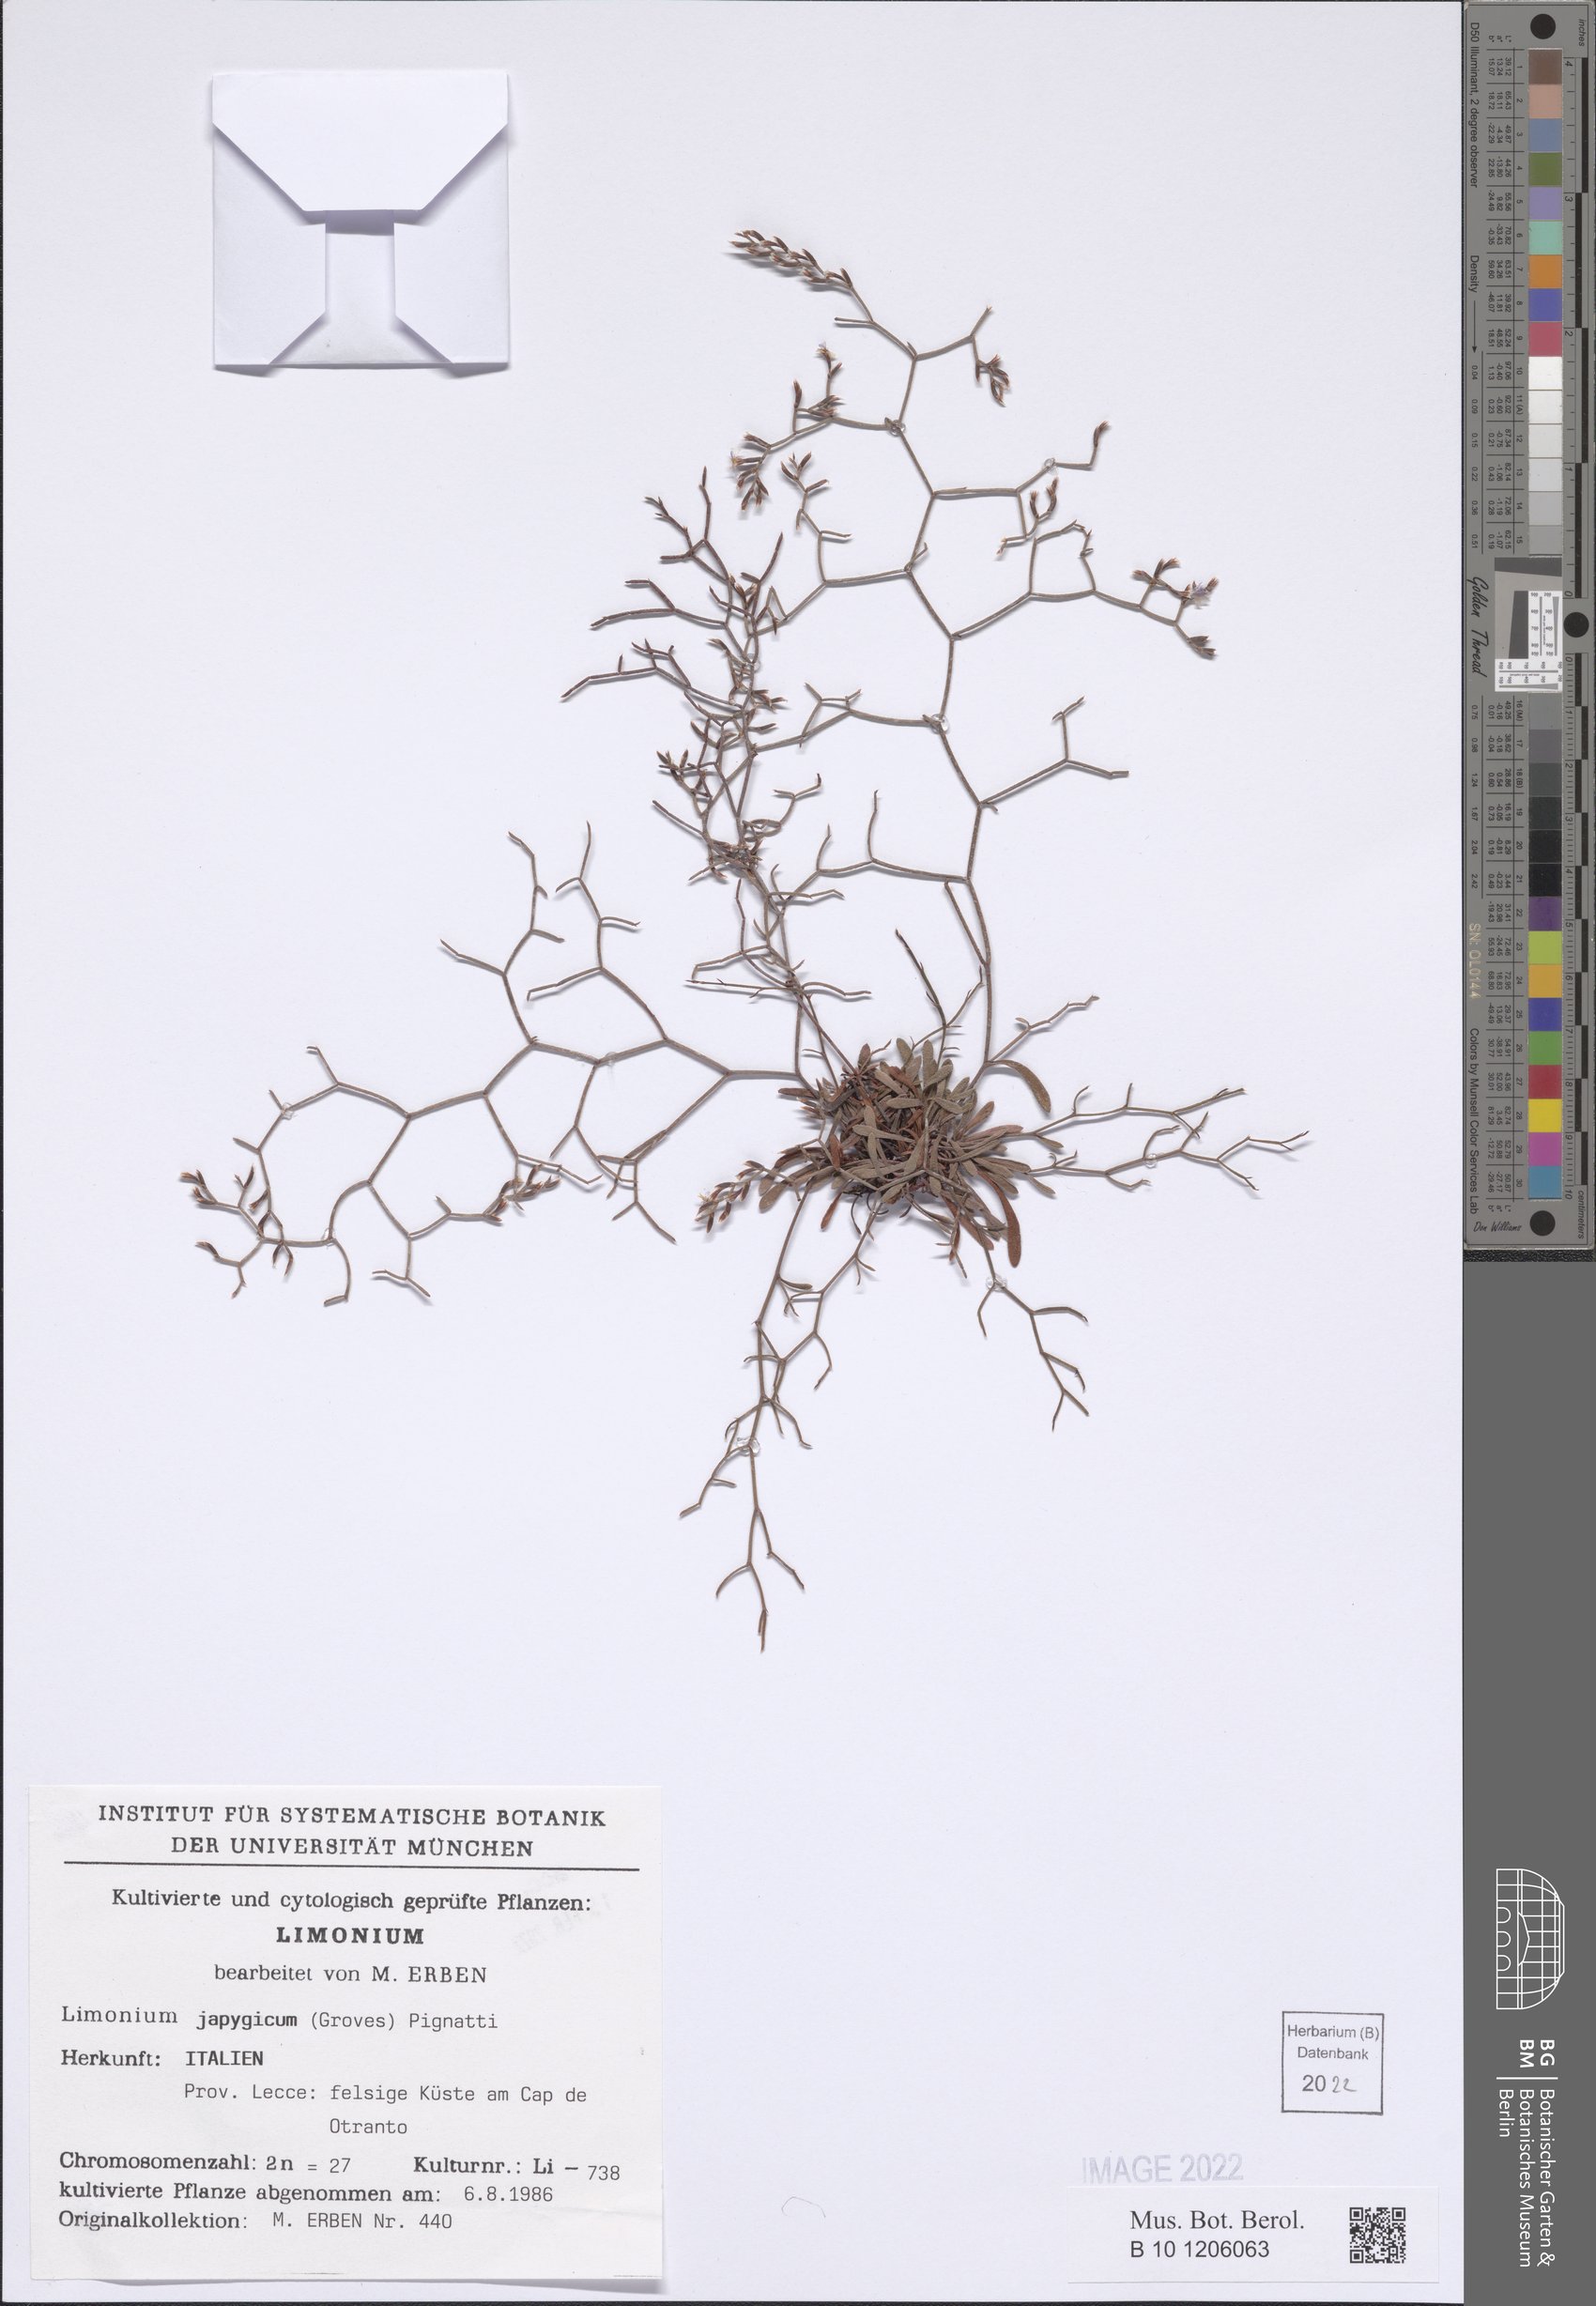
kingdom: Plantae
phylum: Tracheophyta
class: Magnoliopsida
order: Caryophyllales
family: Plumbaginaceae
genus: Limonium
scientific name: Limonium japygicum
